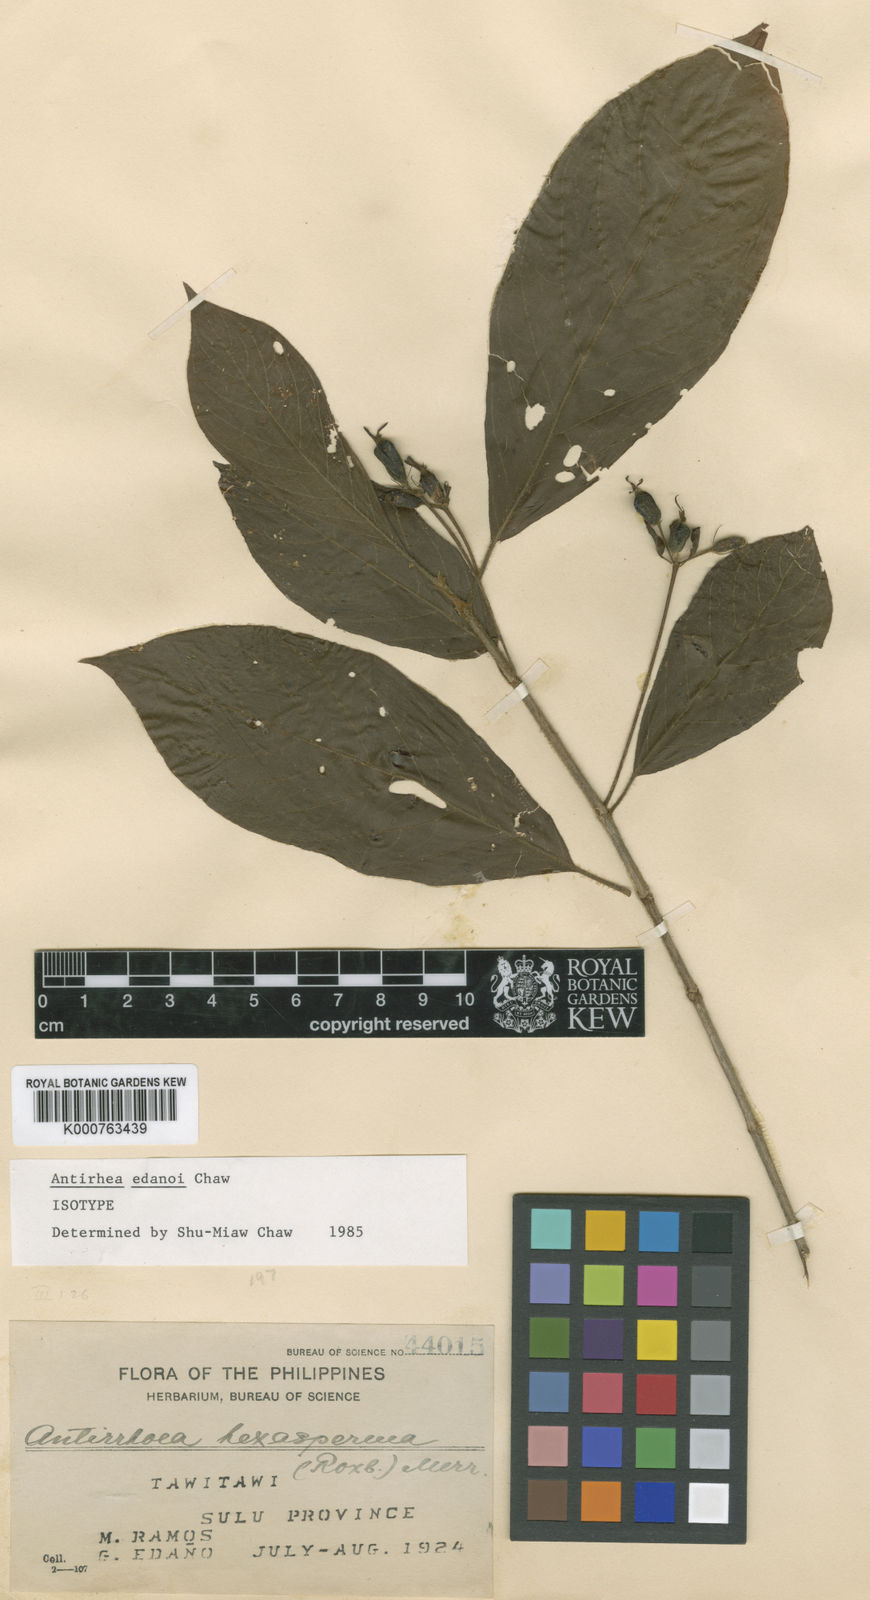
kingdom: Plantae
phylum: Tracheophyta
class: Magnoliopsida
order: Gentianales
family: Rubiaceae
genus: Guettardella
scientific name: Guettardella edanoi
